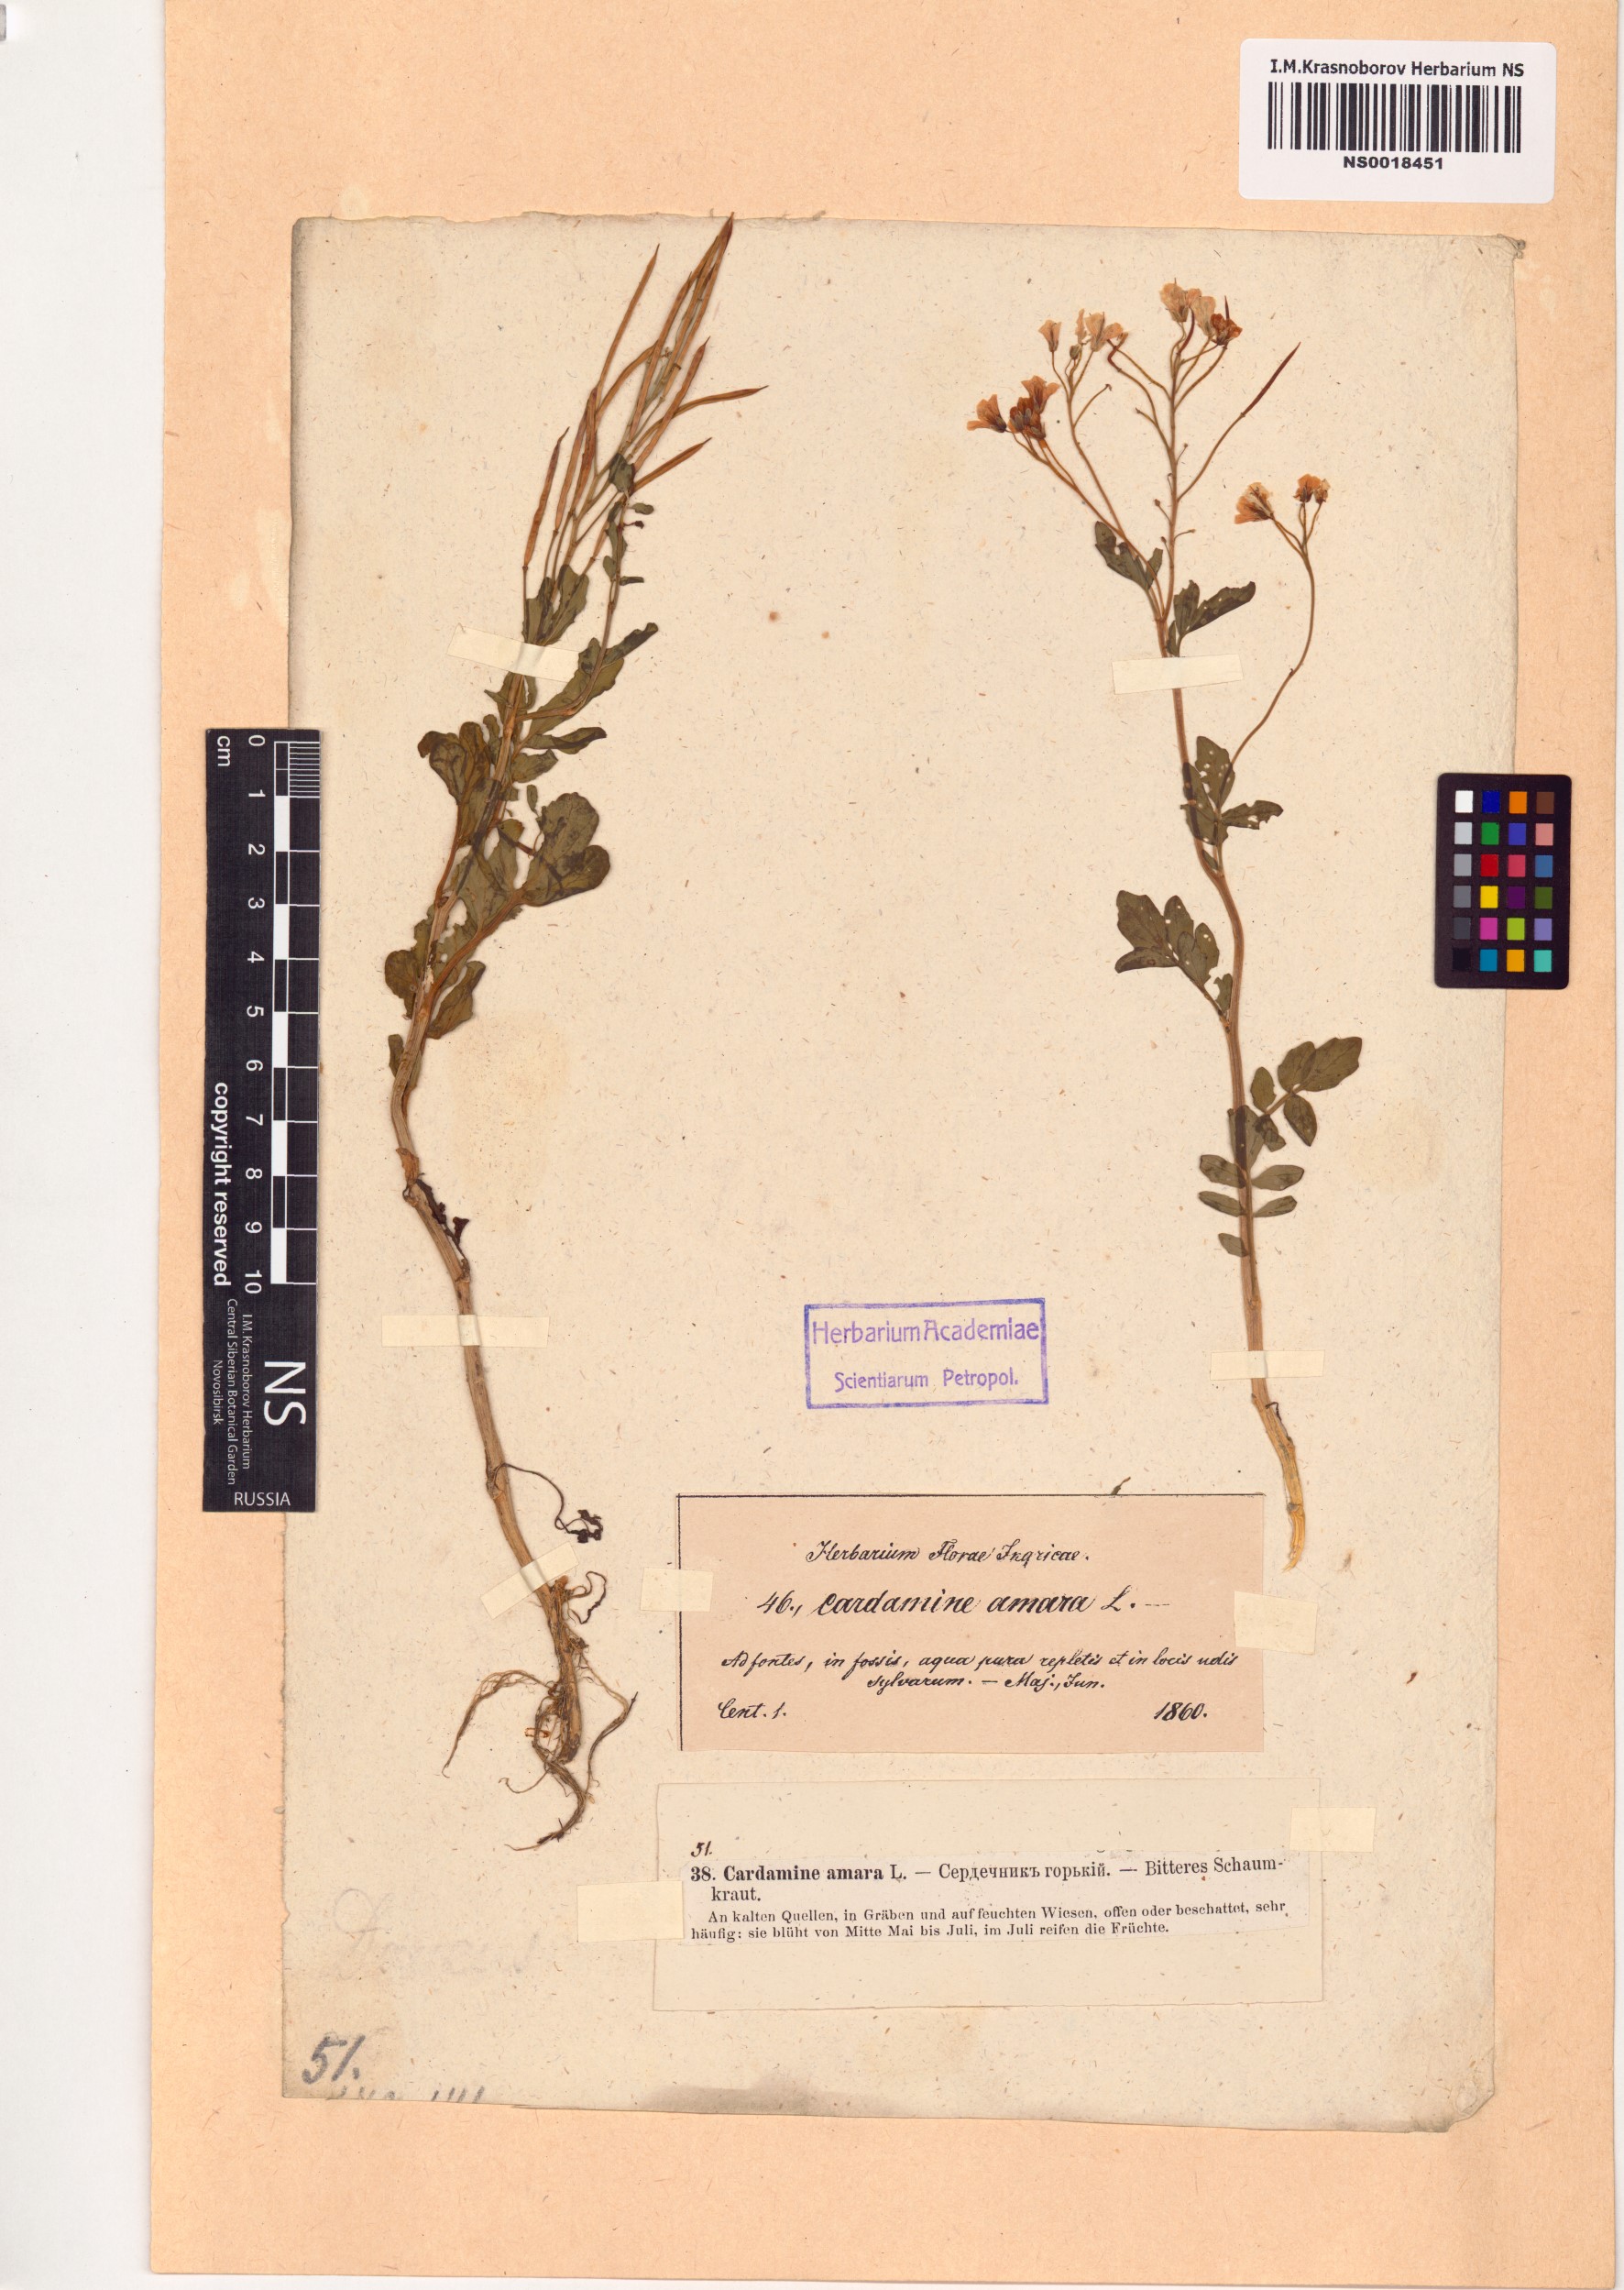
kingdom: Plantae
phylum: Tracheophyta
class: Magnoliopsida
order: Brassicales
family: Brassicaceae
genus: Cardamine
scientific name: Cardamine amara
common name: Large bitter-cress
